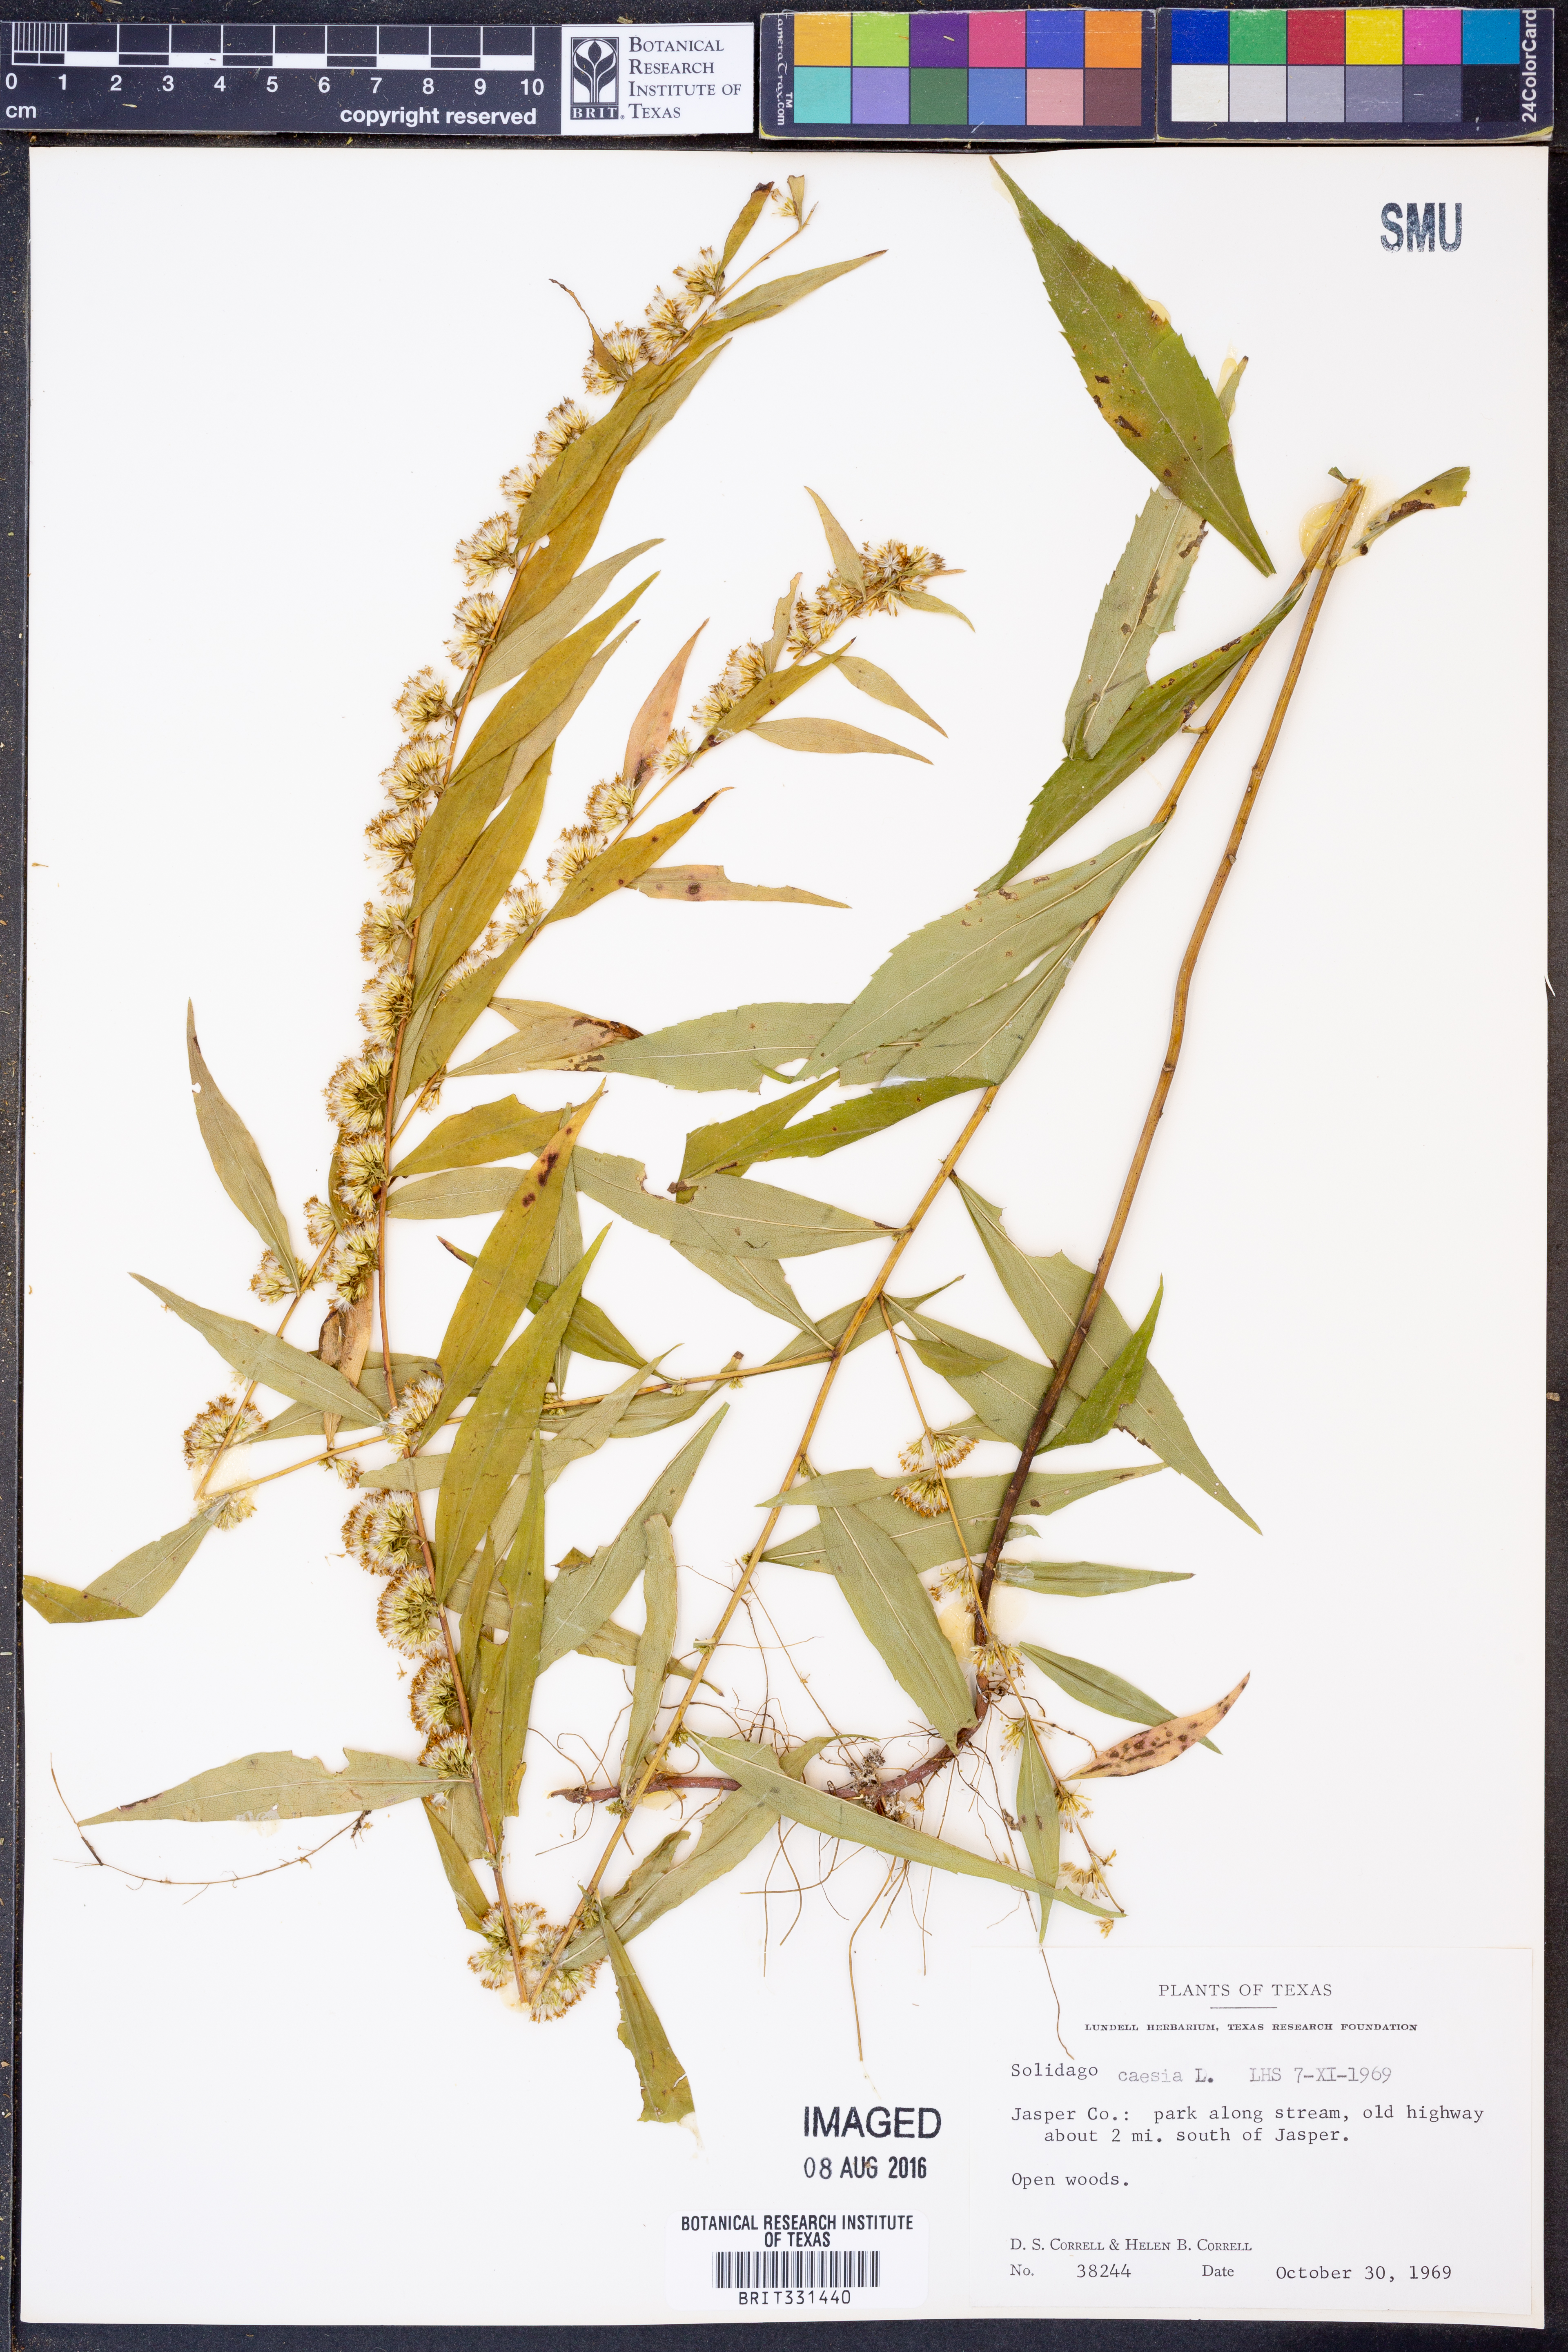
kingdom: Plantae
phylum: Tracheophyta
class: Magnoliopsida
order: Asterales
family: Asteraceae
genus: Solidago
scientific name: Solidago caesia
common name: Woodland goldenrod
